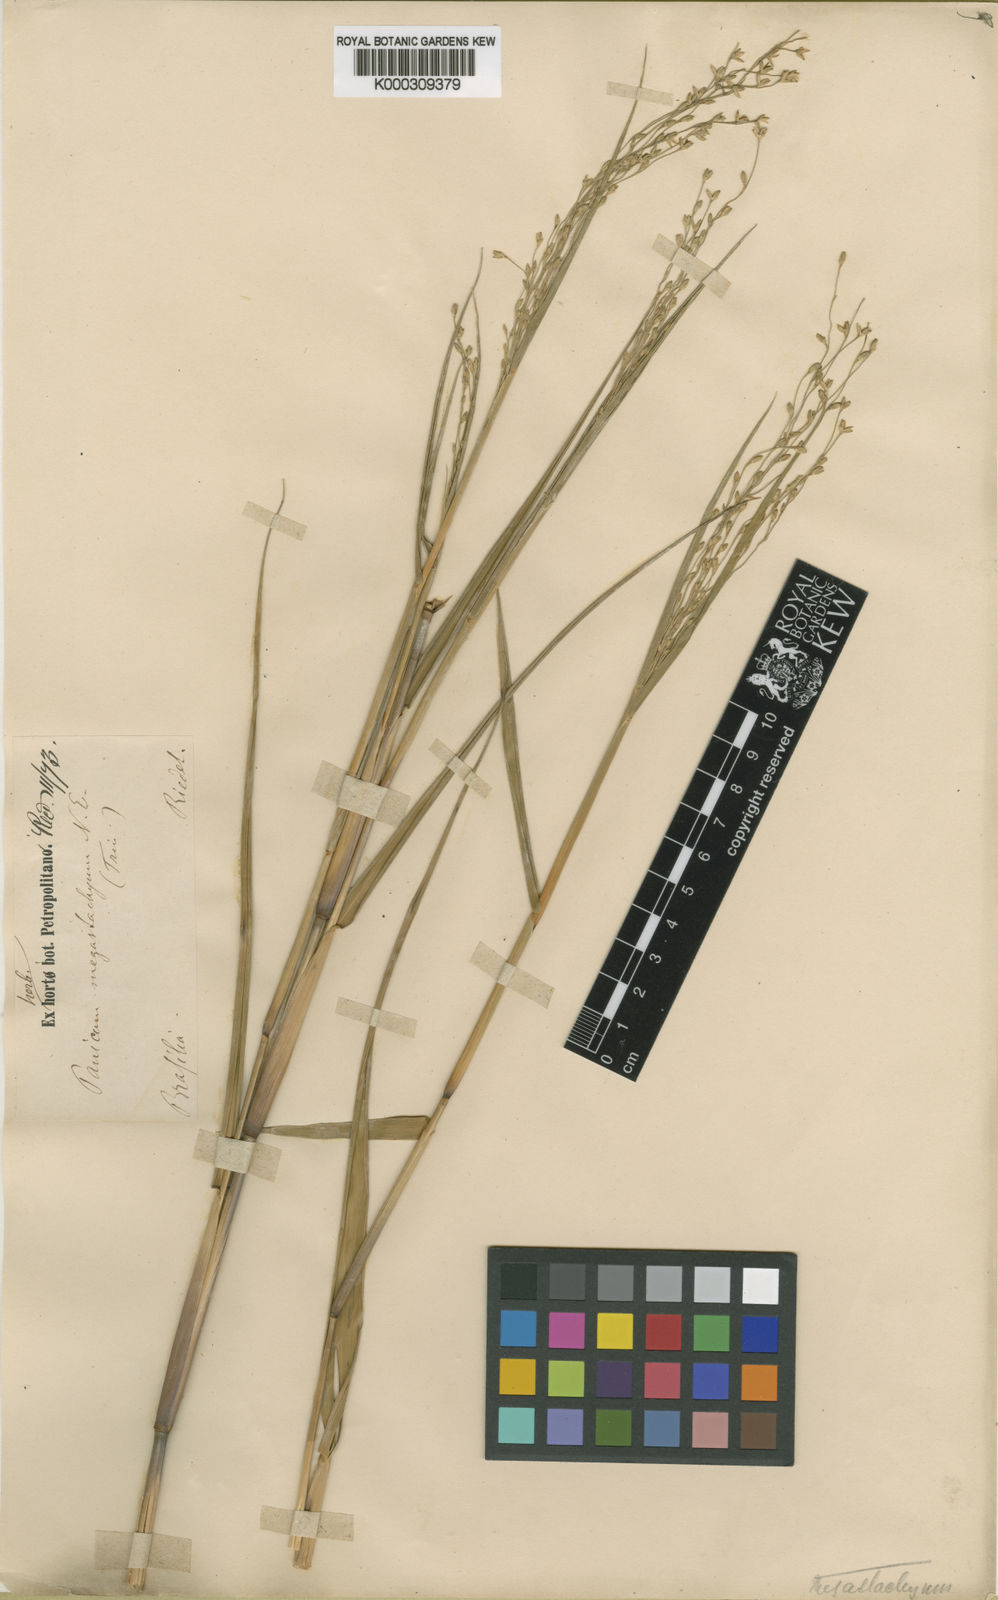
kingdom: Plantae
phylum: Tracheophyta
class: Liliopsida
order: Poales
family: Poaceae
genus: Urochloa
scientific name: Urochloa megastachya
